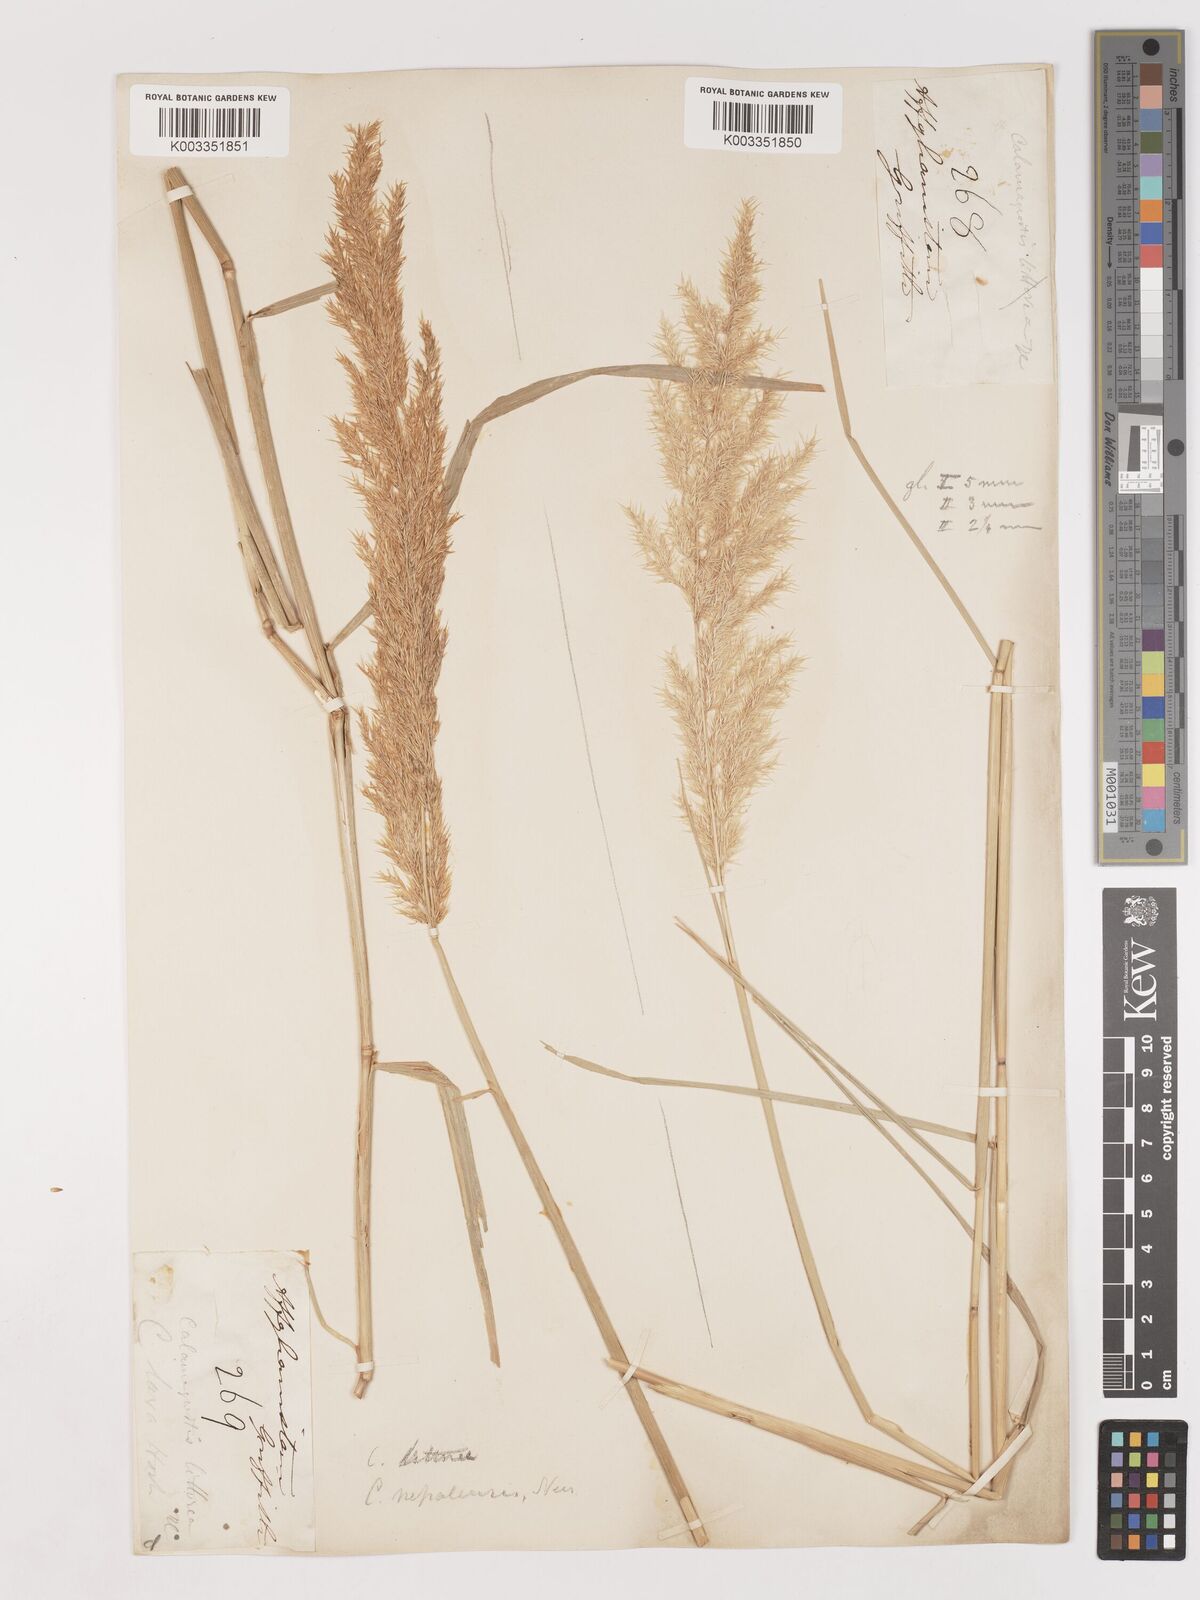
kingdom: Plantae
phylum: Tracheophyta
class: Liliopsida
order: Poales
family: Poaceae
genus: Calamagrostis
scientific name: Calamagrostis purpurea
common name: Scandinavian small-reed
